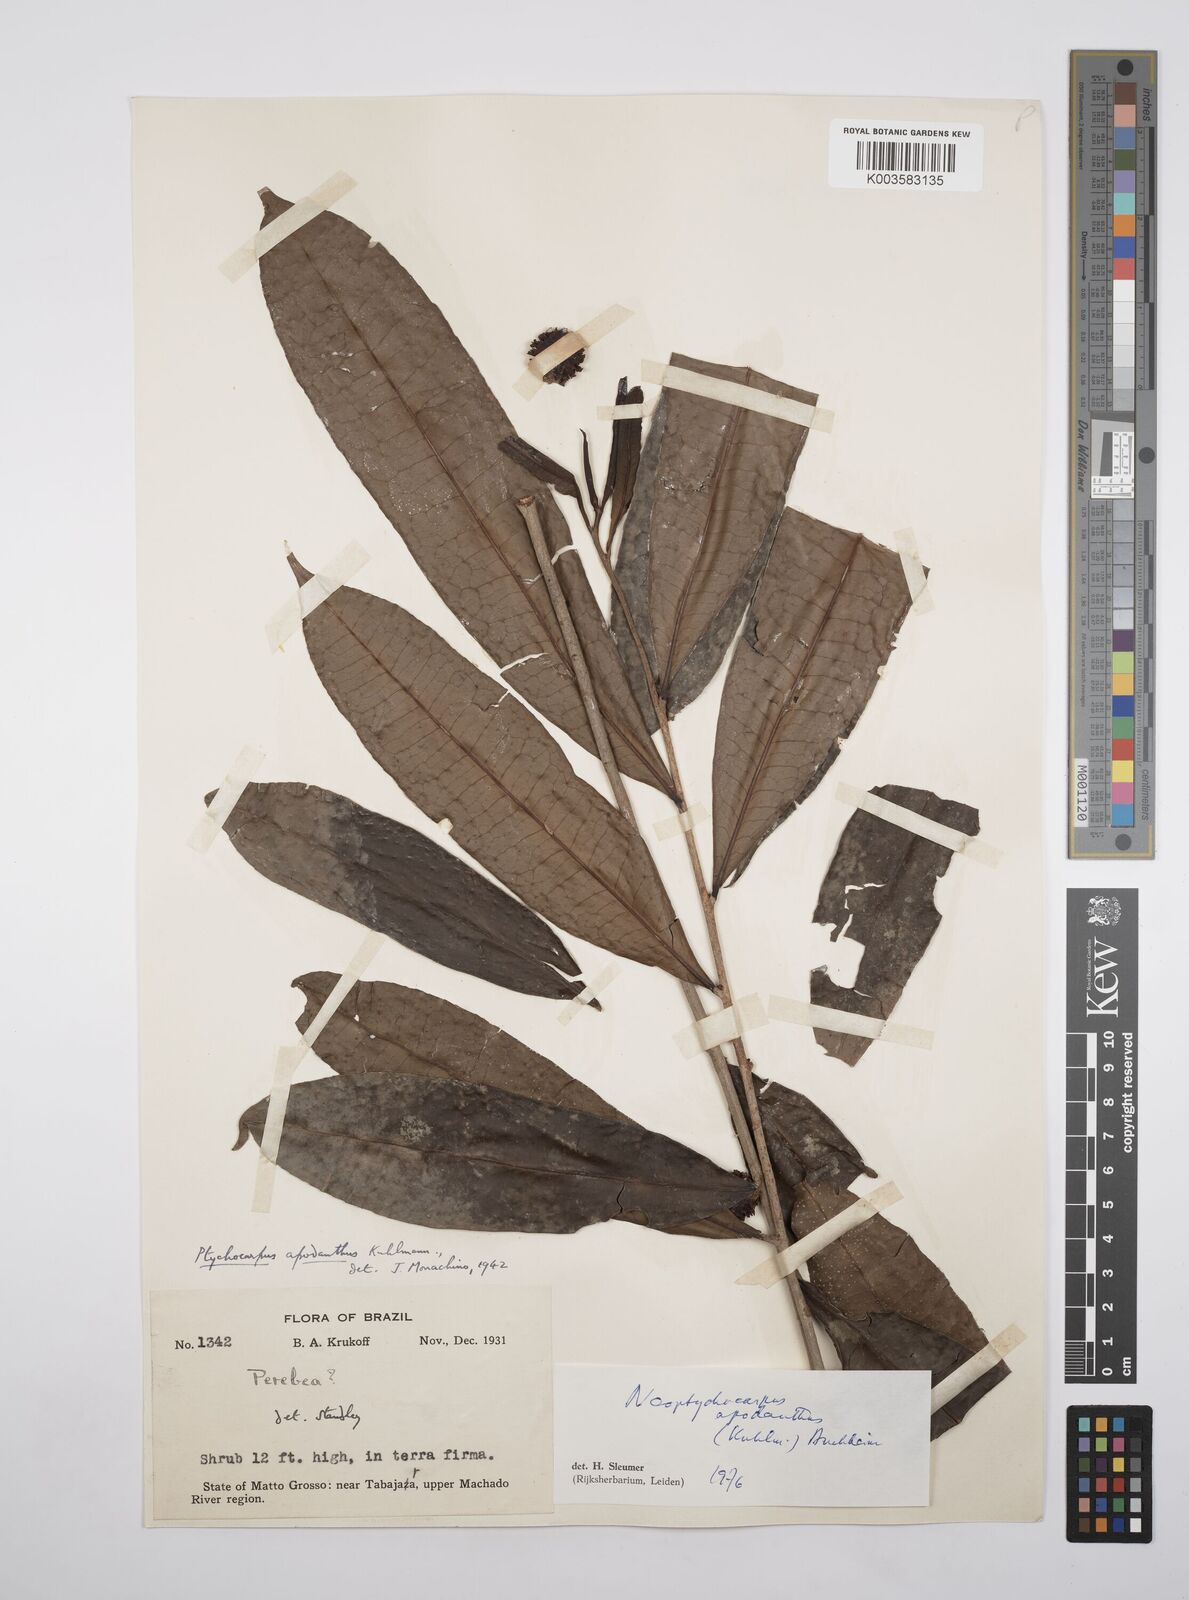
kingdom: Plantae
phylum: Tracheophyta
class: Magnoliopsida
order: Malpighiales
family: Salicaceae
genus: Casearia
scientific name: Casearia apodantha
